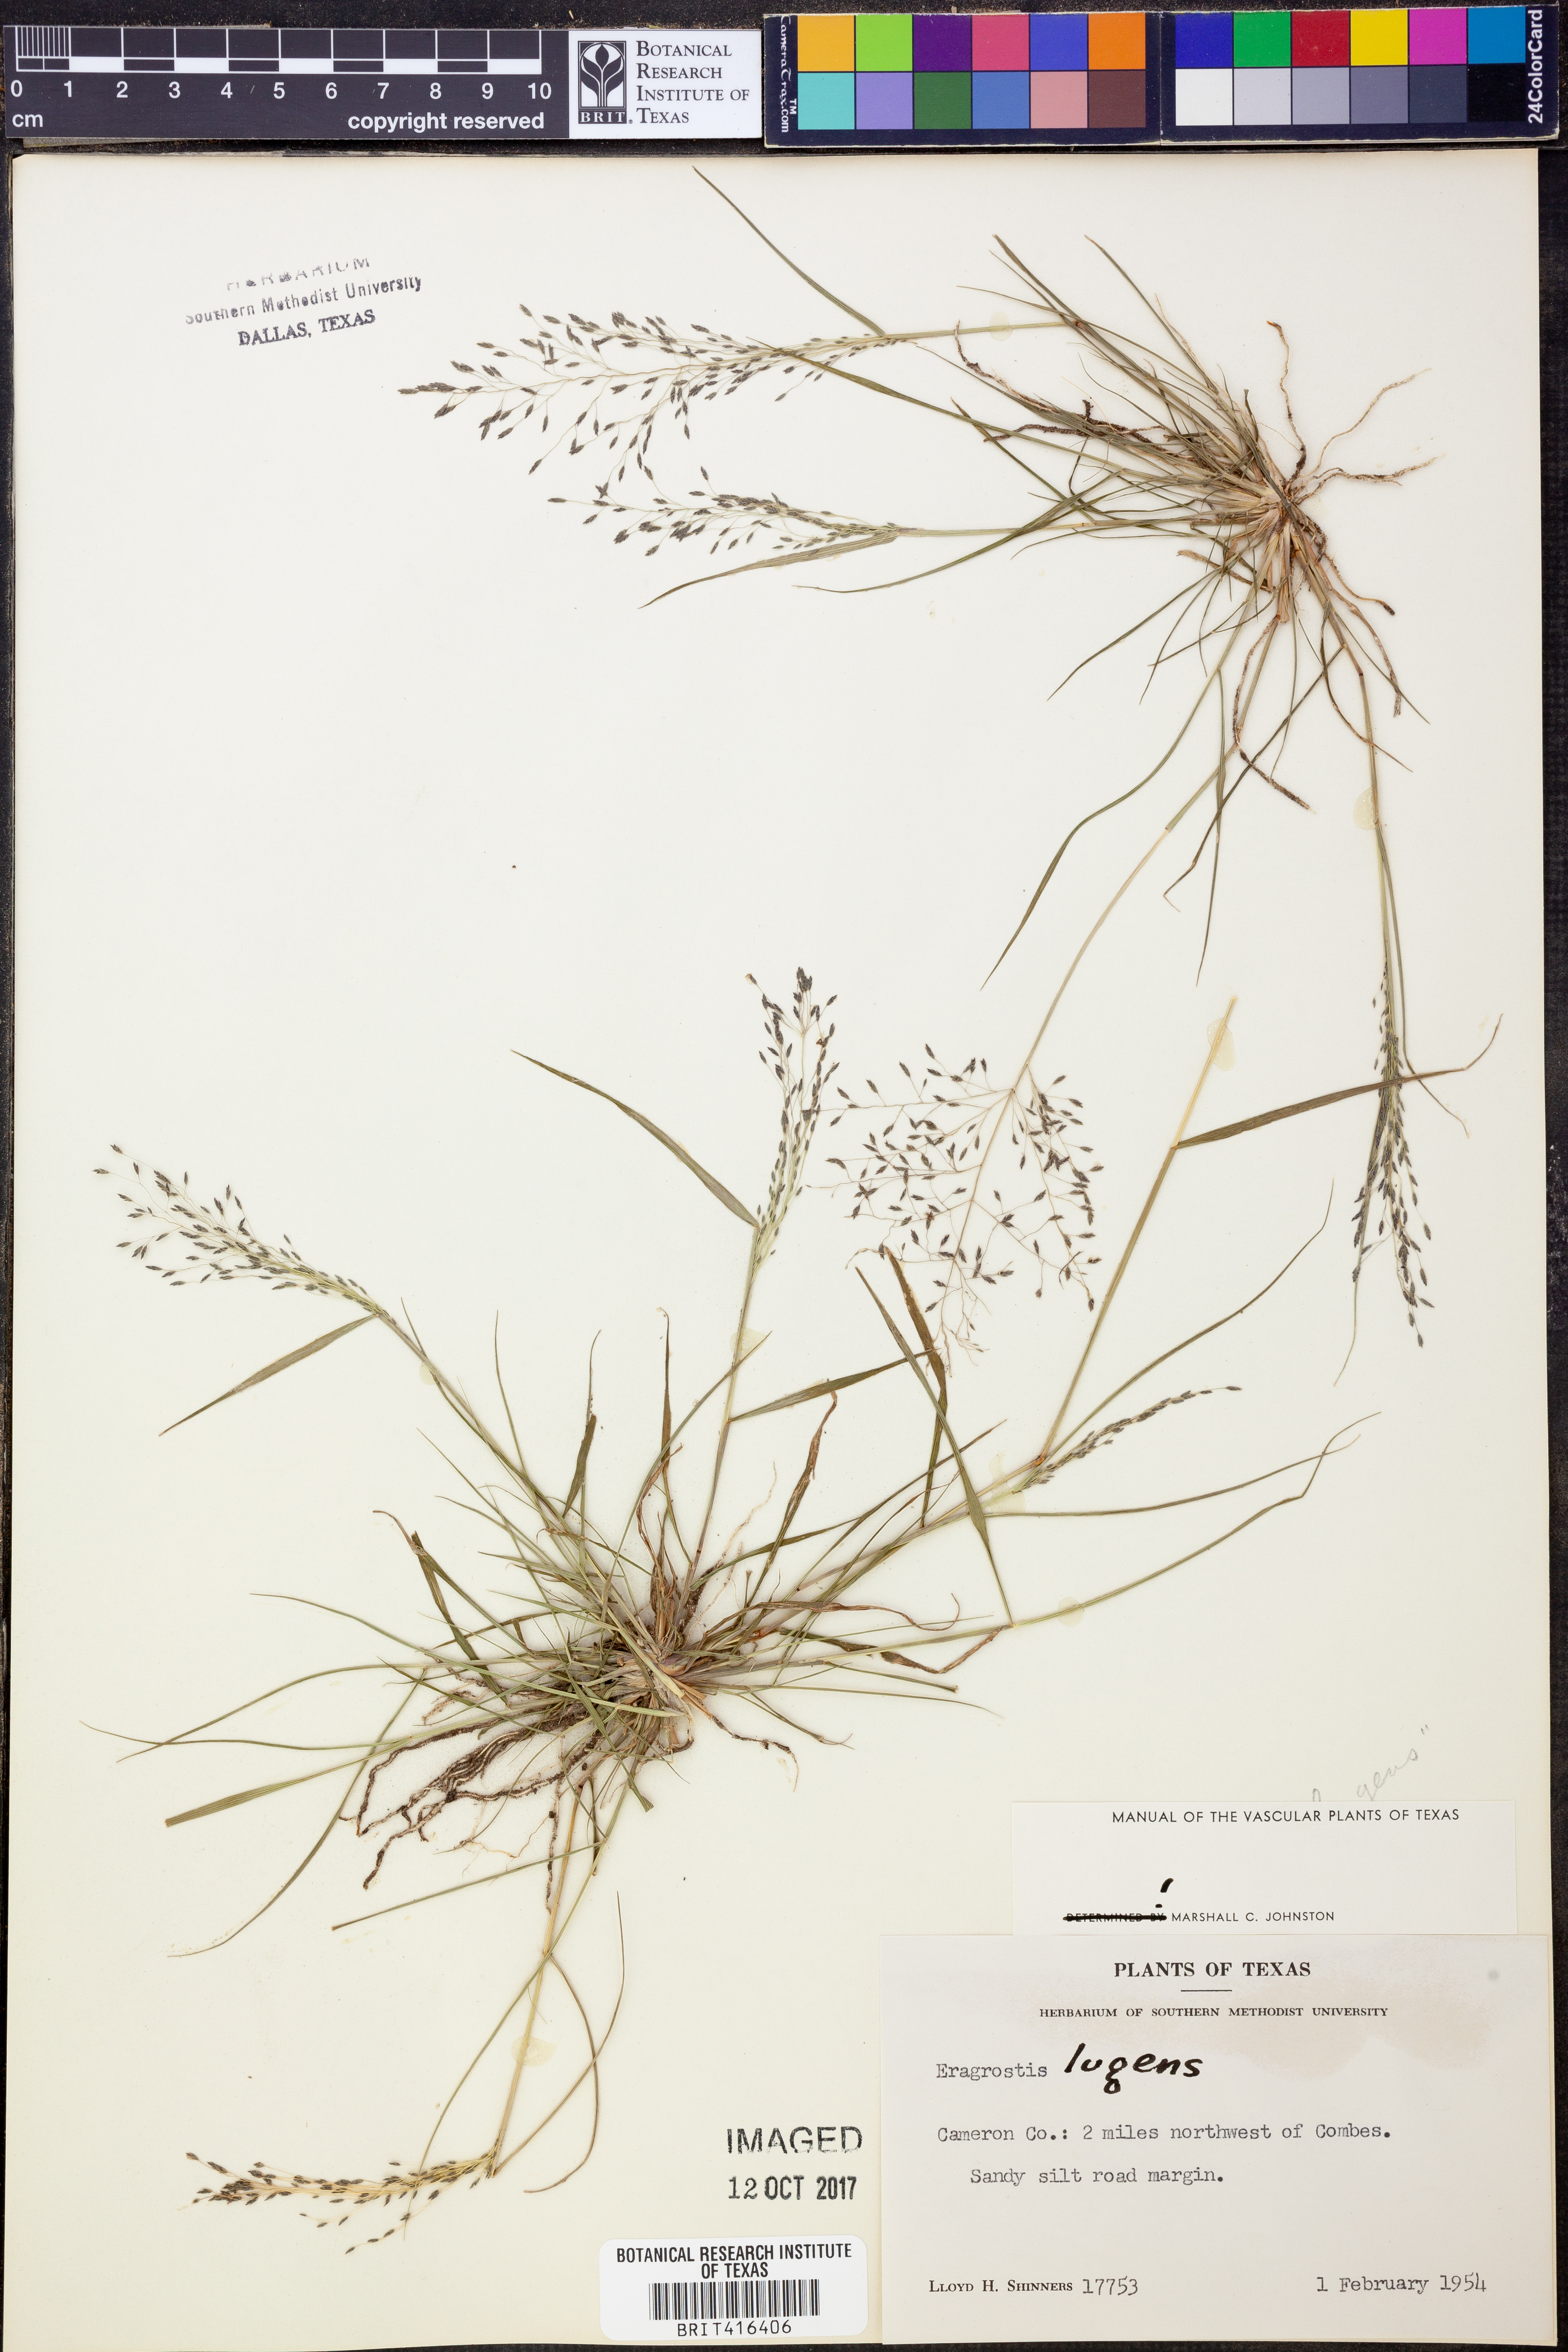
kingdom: Plantae
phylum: Tracheophyta
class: Liliopsida
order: Poales
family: Poaceae
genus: Eragrostis
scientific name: Eragrostis capillaris
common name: Hair-like lovegrass
